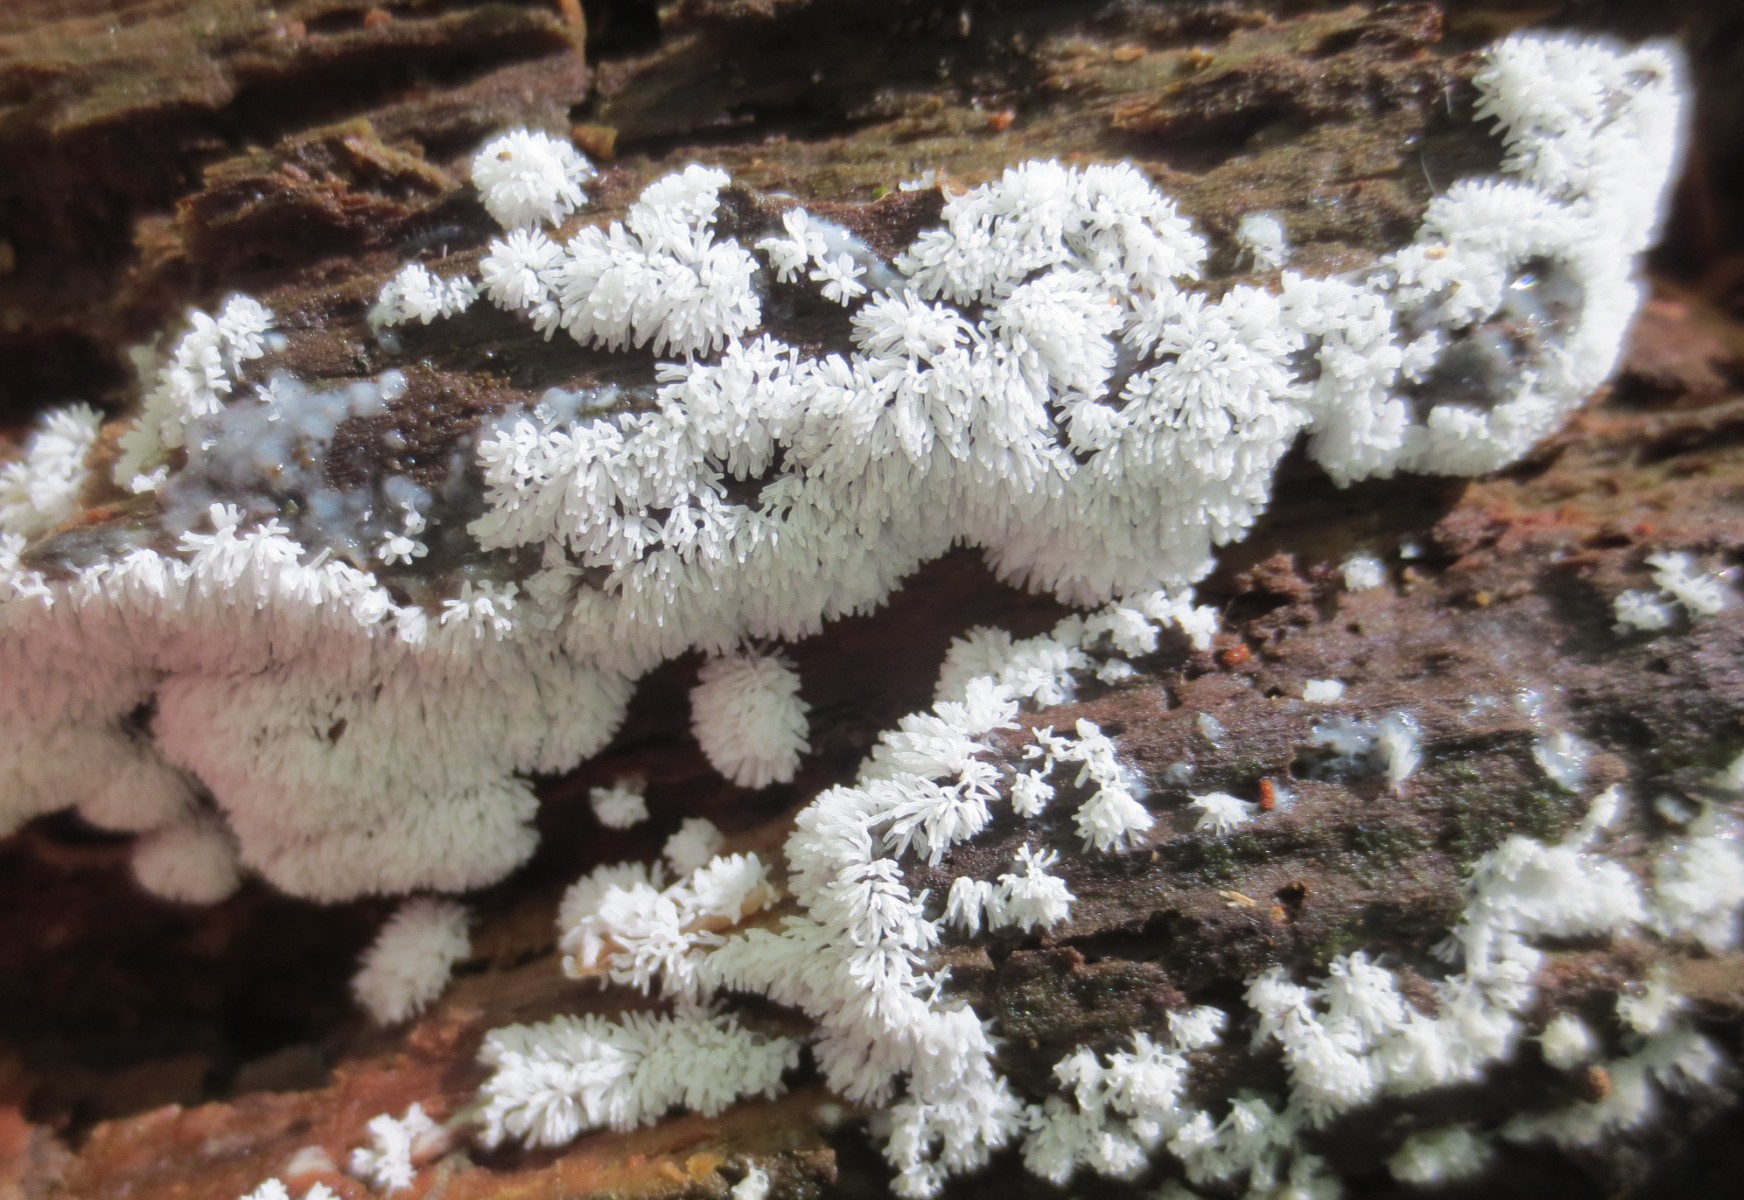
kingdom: Protozoa
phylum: Mycetozoa
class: Protosteliomycetes
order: Ceratiomyxales
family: Ceratiomyxaceae
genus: Ceratiomyxa
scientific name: Ceratiomyxa fruticulosa
